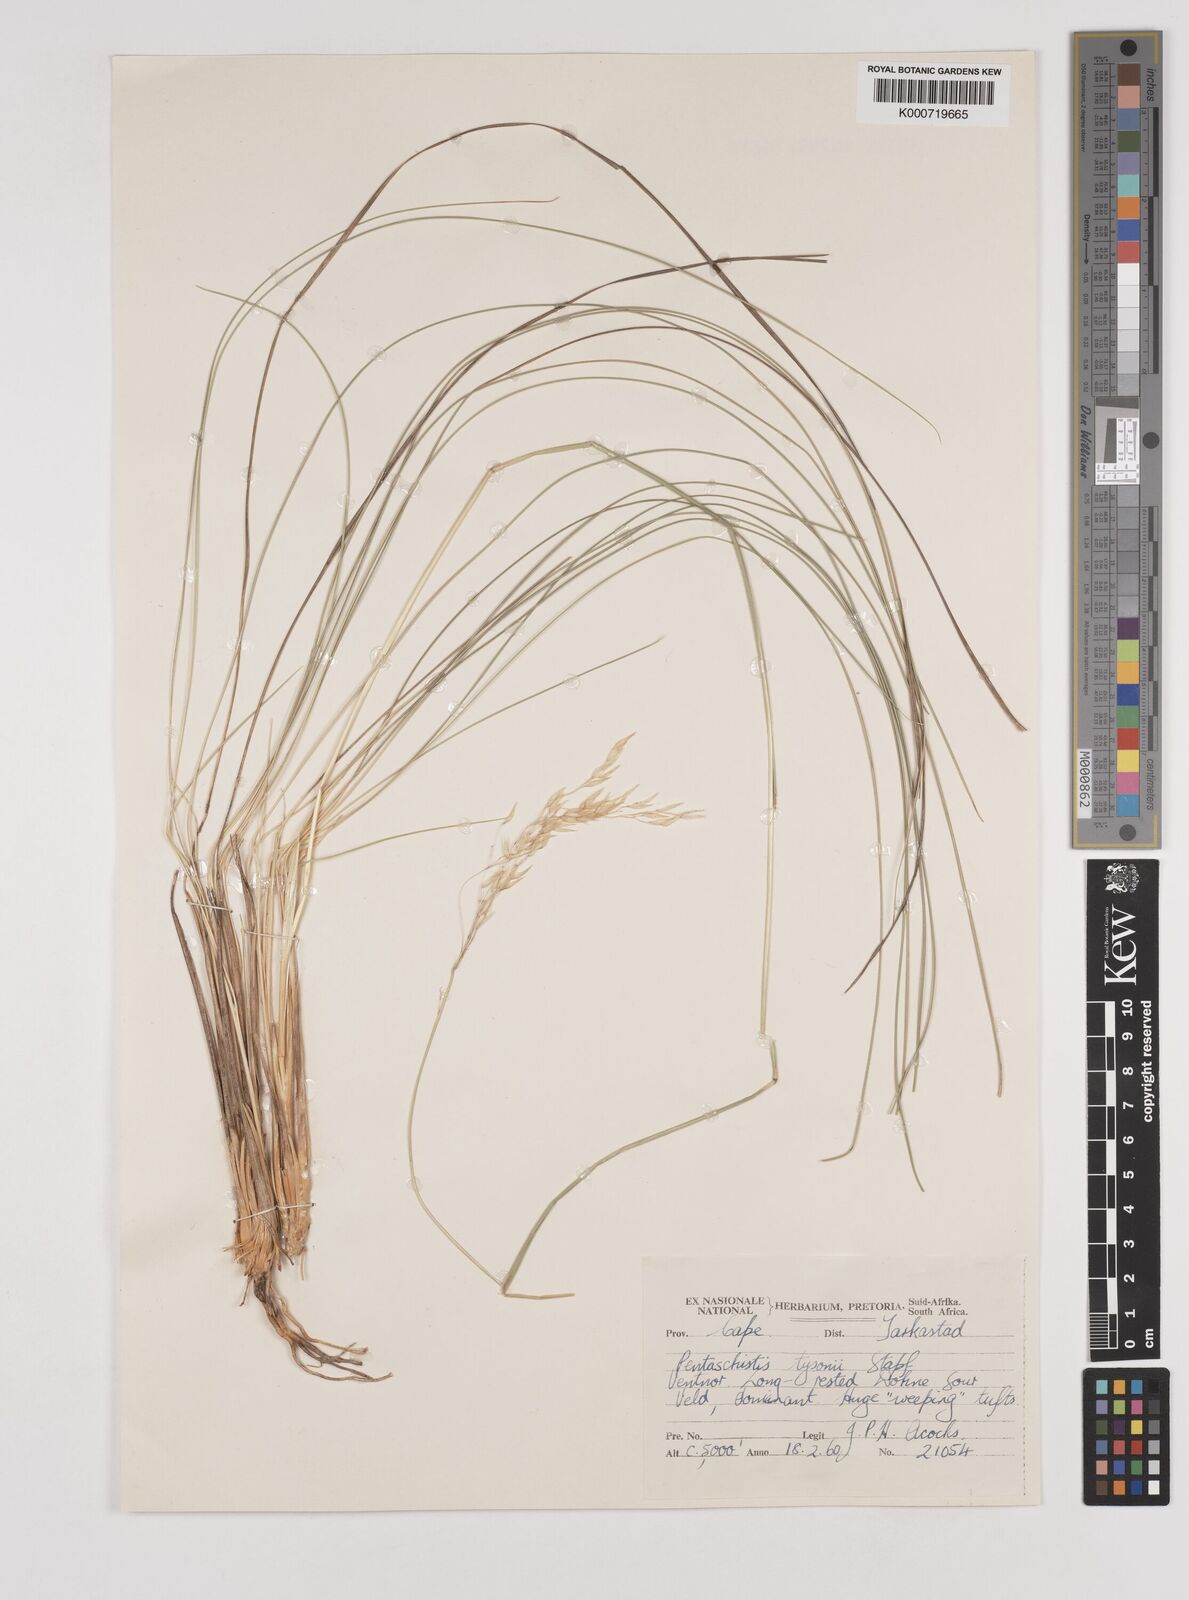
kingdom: Plantae
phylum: Tracheophyta
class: Liliopsida
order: Poales
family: Poaceae
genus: Pentameris
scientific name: Pentameris tysonii
